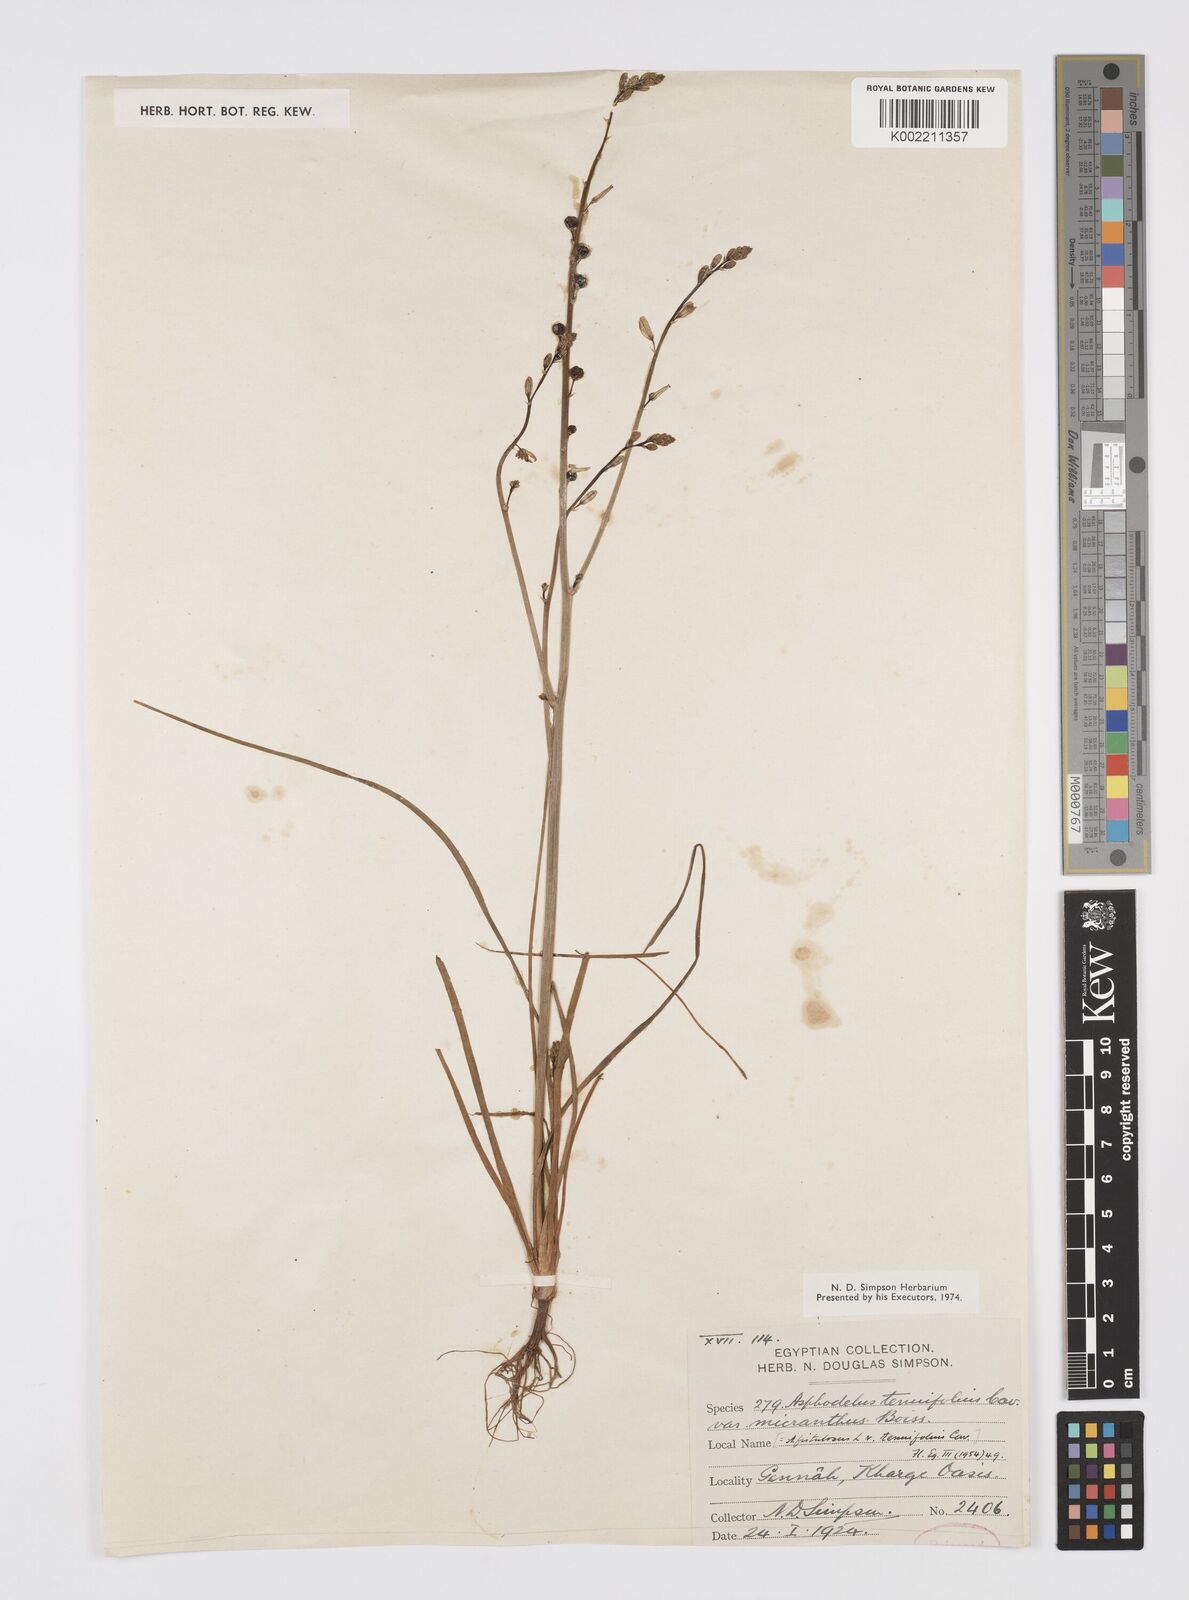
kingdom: Plantae
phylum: Tracheophyta
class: Liliopsida
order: Asparagales
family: Asphodelaceae
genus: Asphodelus
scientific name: Asphodelus tenuifolius
